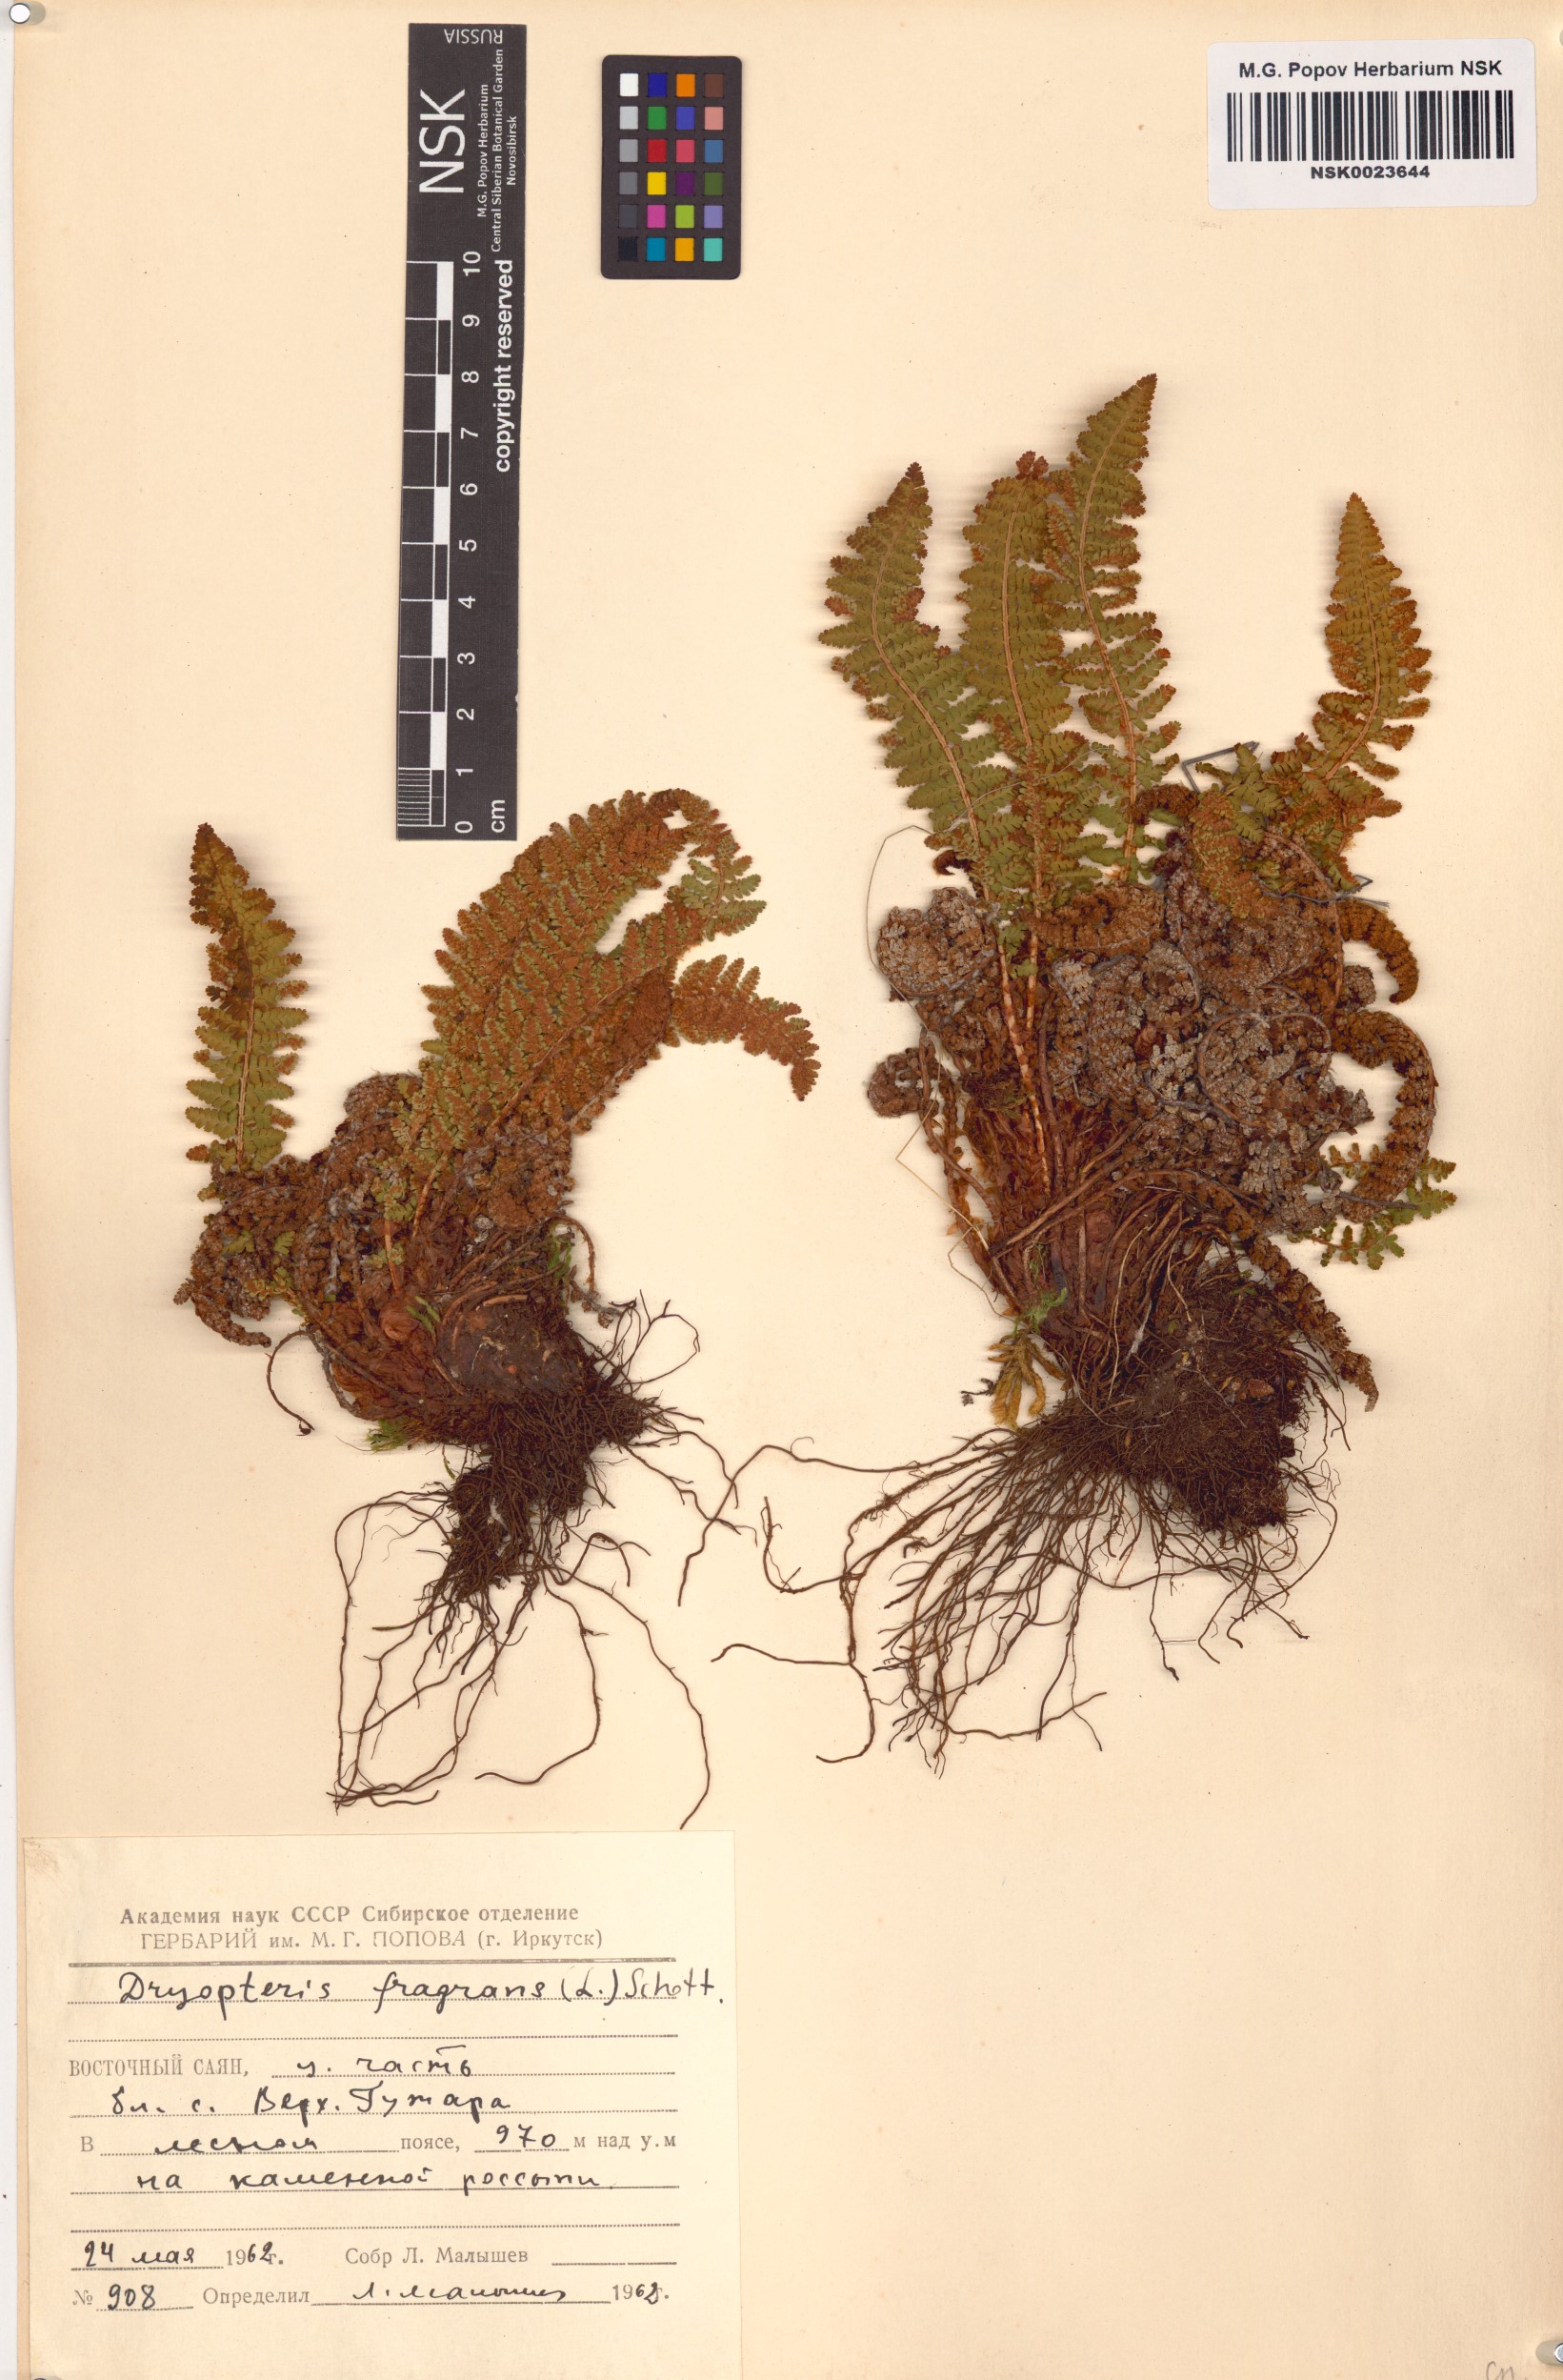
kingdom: Plantae
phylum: Tracheophyta
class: Polypodiopsida
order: Polypodiales
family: Dryopteridaceae
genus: Dryopteris
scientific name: Dryopteris fragrans
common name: Fragrant wood fern
